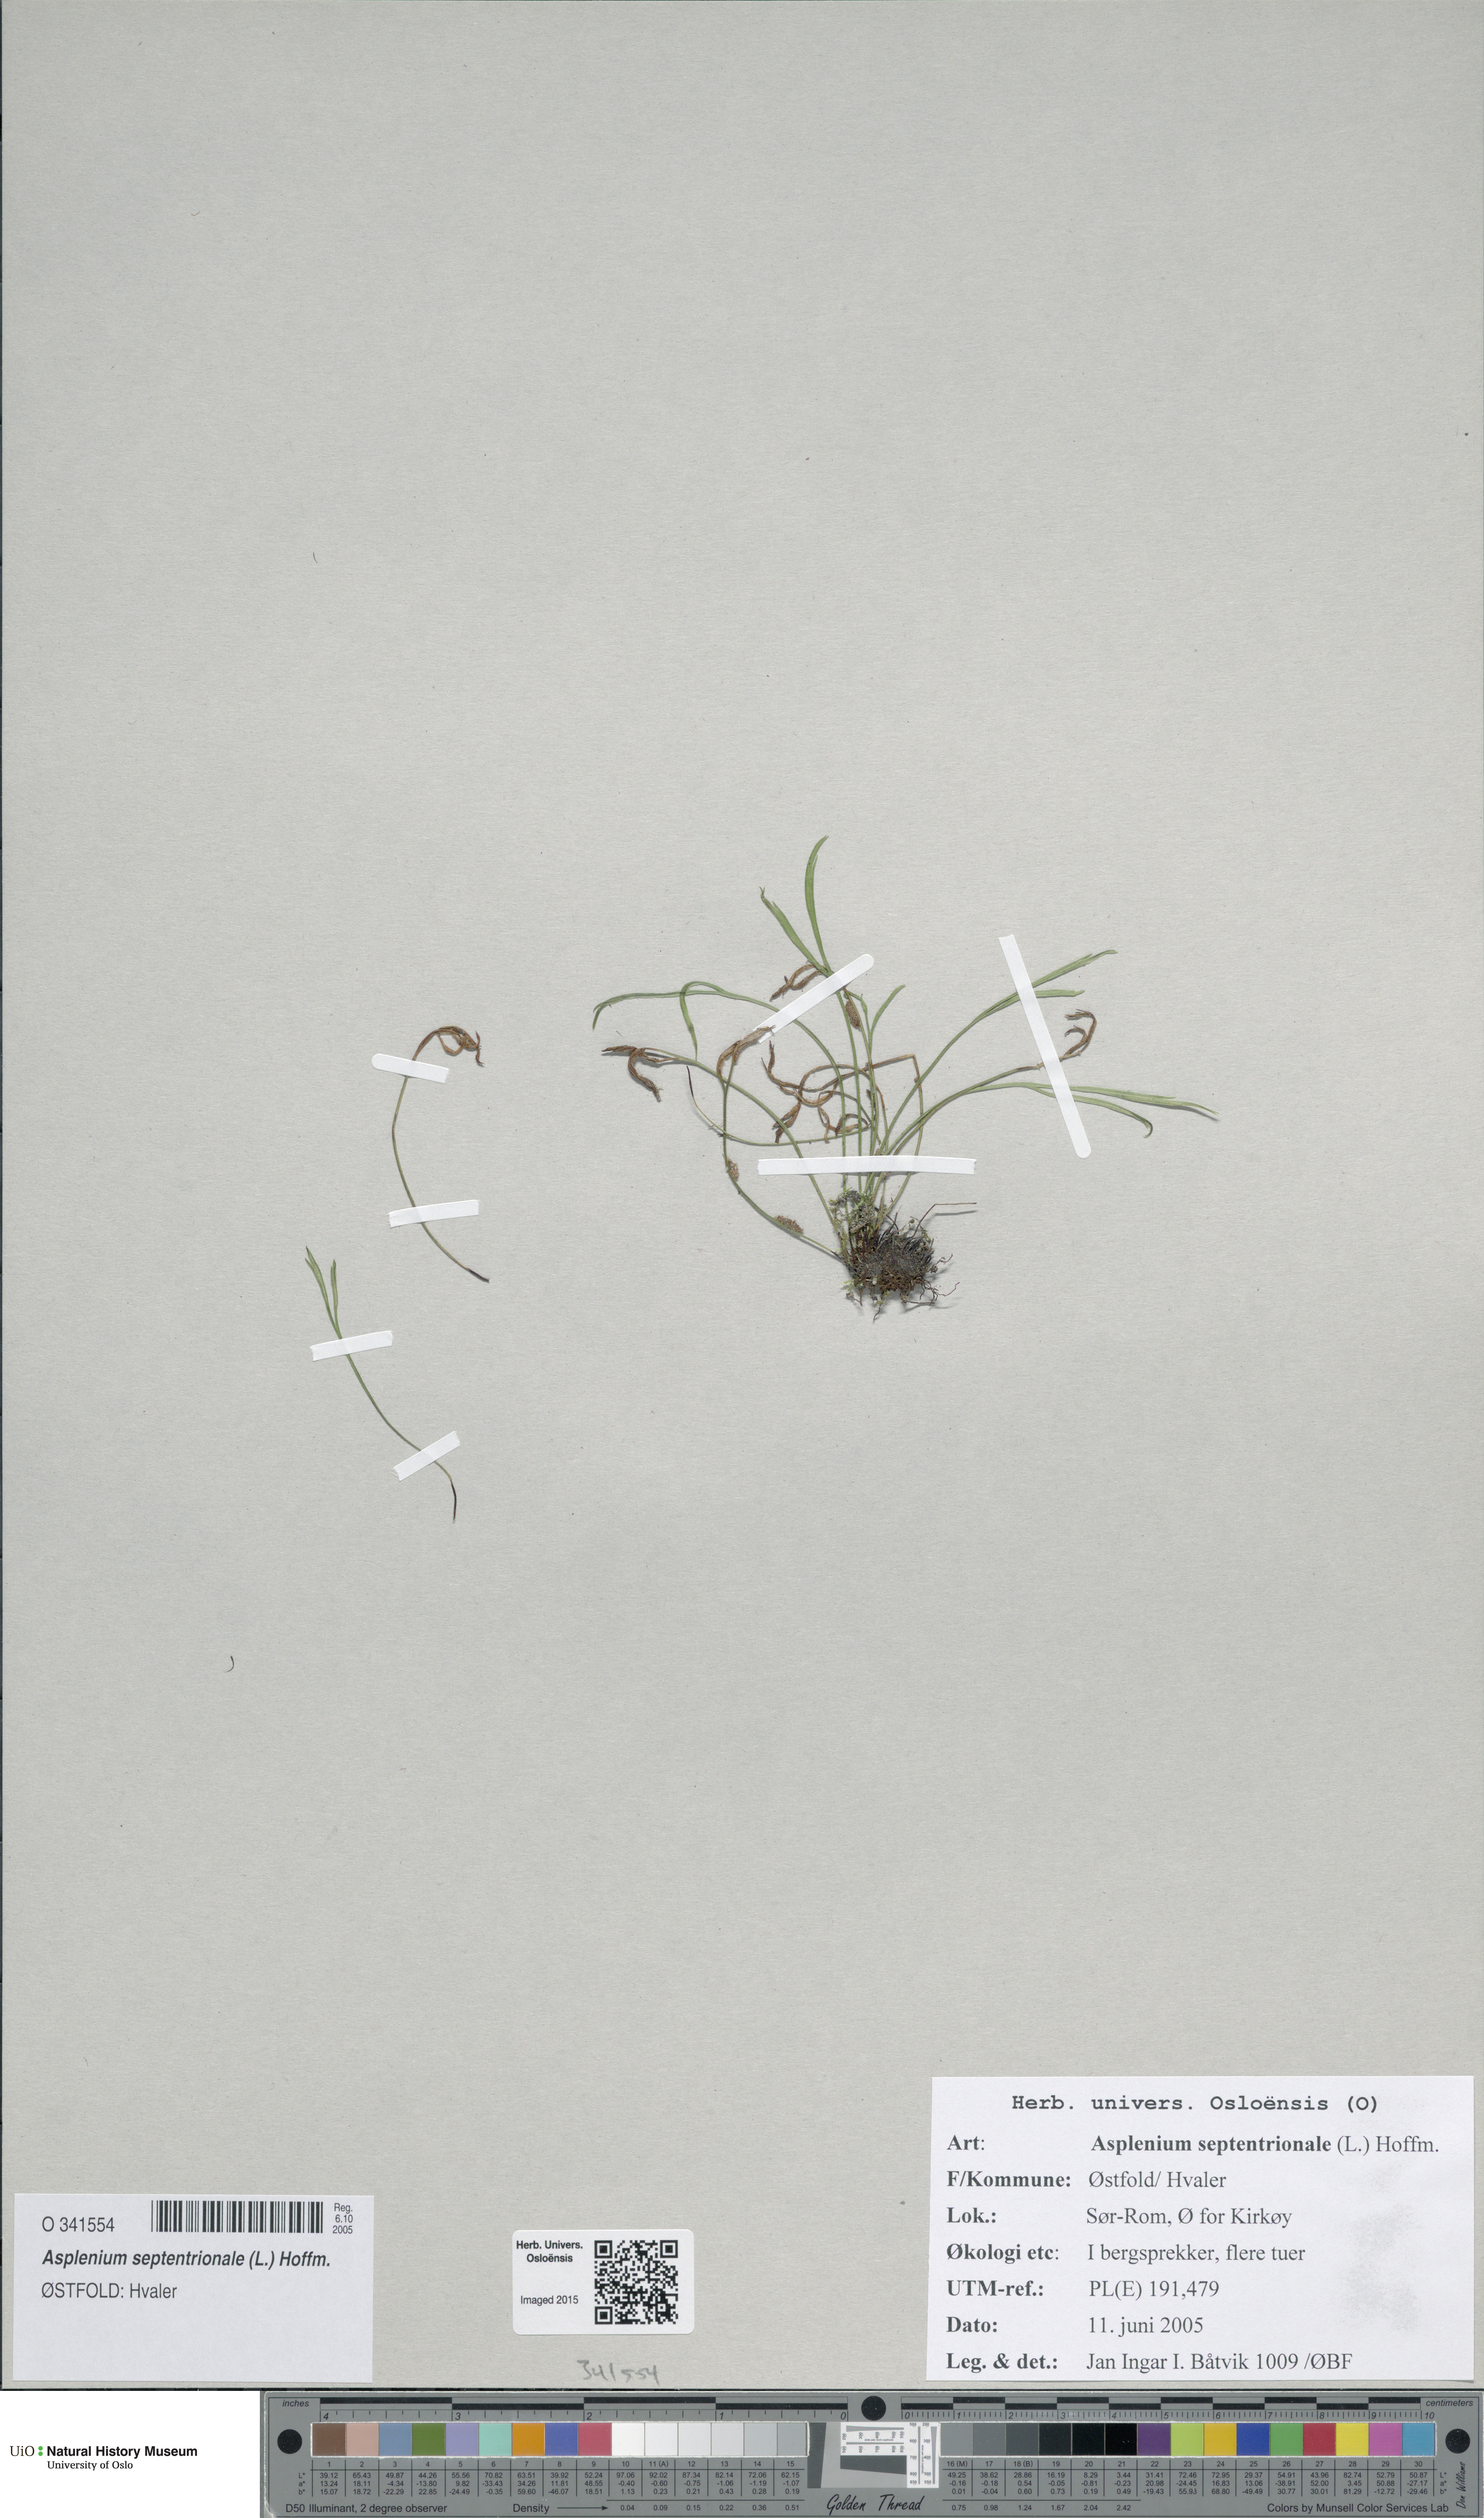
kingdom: Plantae
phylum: Tracheophyta
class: Polypodiopsida
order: Polypodiales
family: Aspleniaceae
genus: Asplenium
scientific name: Asplenium septentrionale
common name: Forked spleenwort
